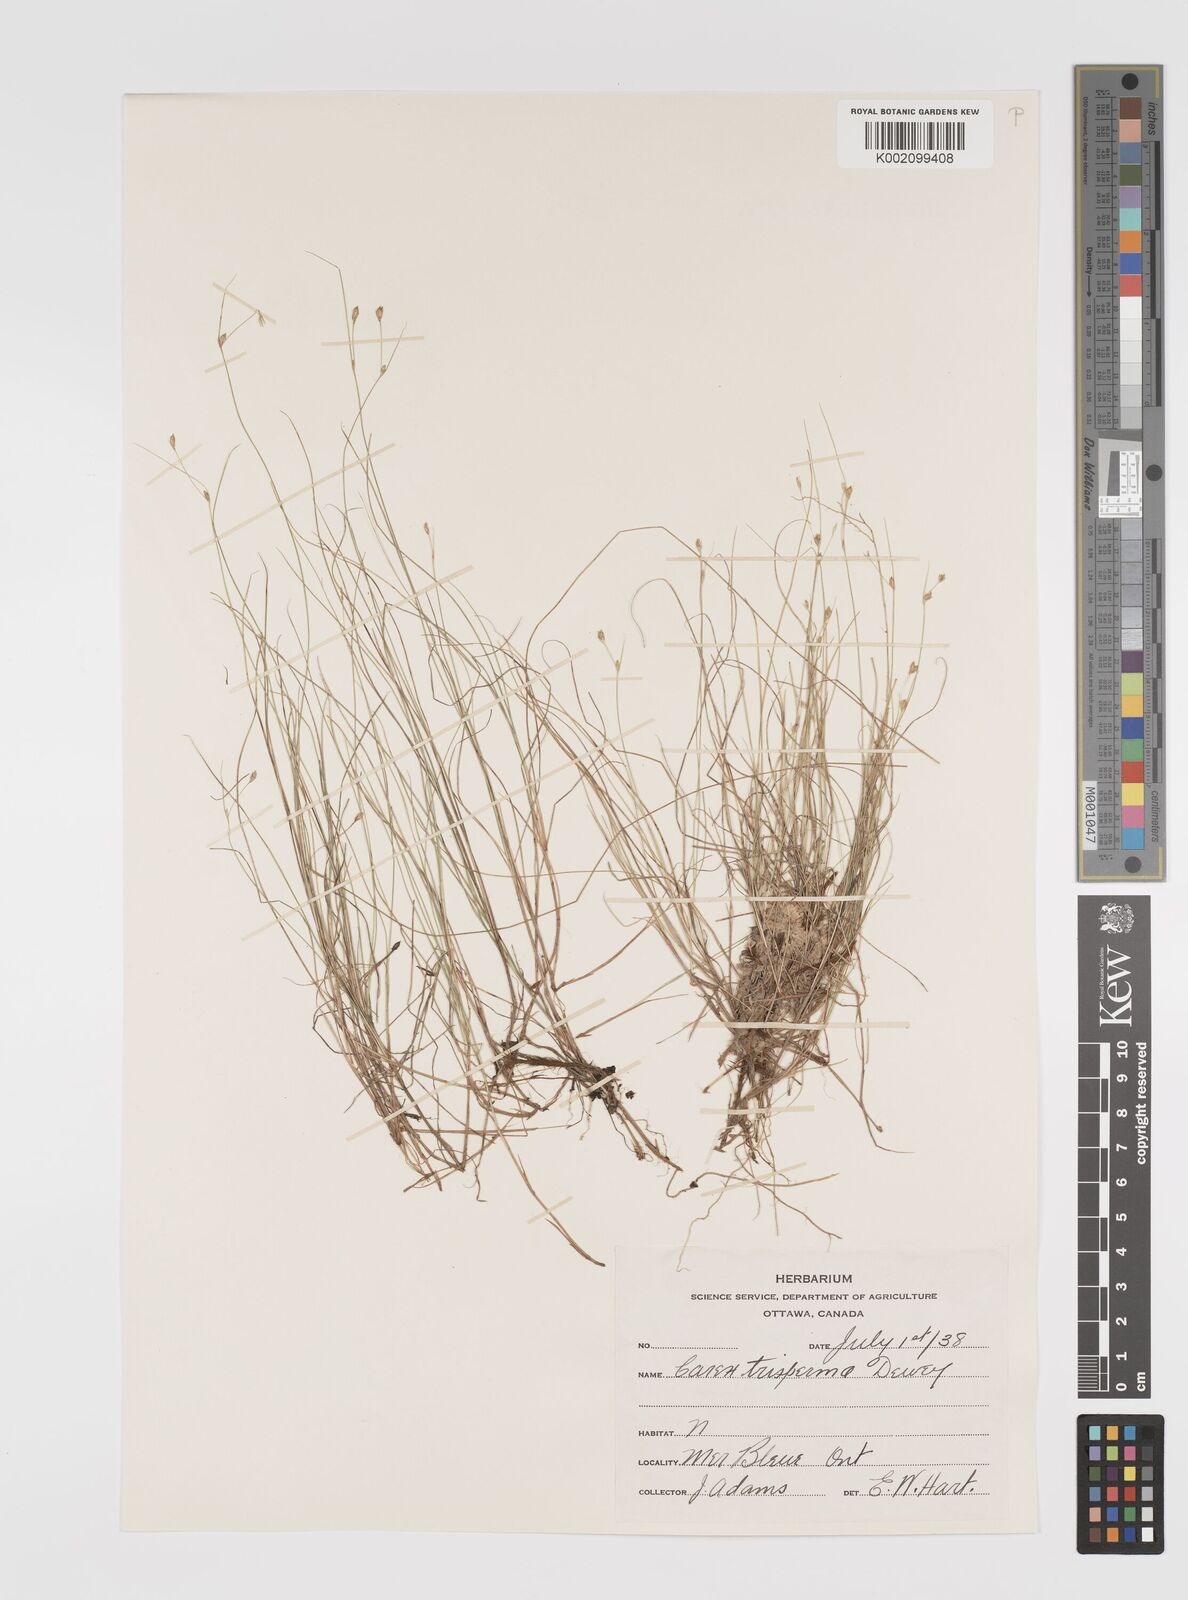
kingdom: Plantae
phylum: Tracheophyta
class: Liliopsida
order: Poales
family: Cyperaceae
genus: Carex
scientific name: Carex trisperma
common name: Three-seeded sedge
